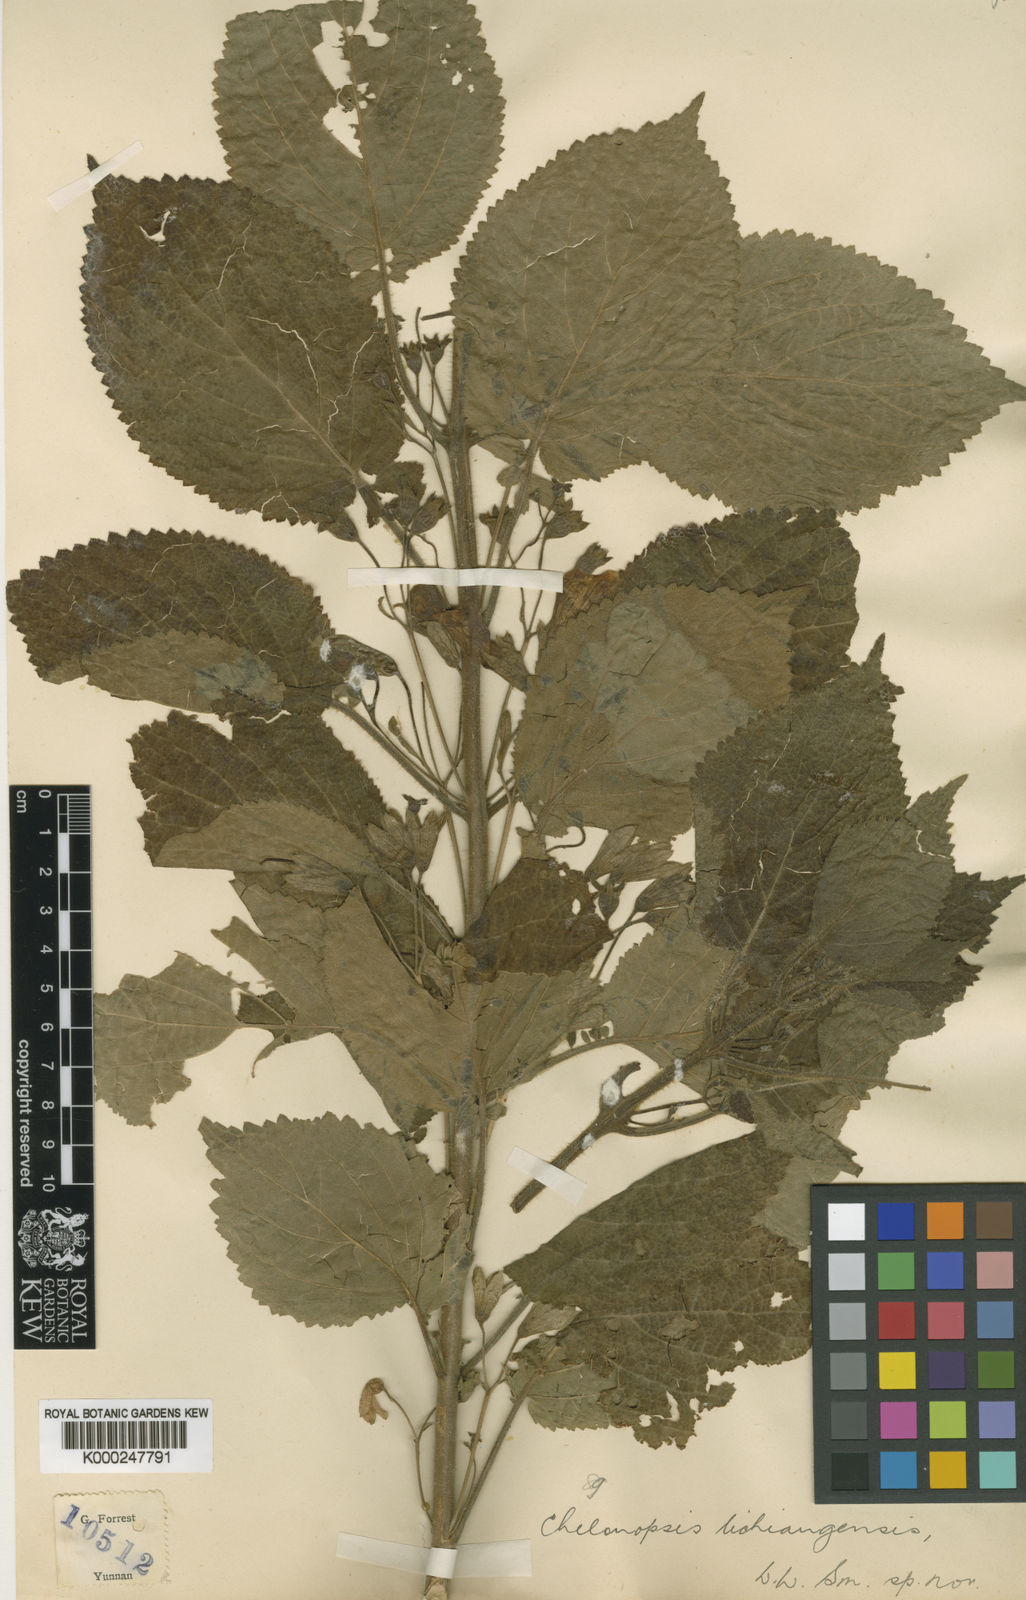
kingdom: Plantae
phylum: Tracheophyta
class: Magnoliopsida
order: Lamiales
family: Lamiaceae
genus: Chelonopsis
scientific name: Chelonopsis lichiangensis
